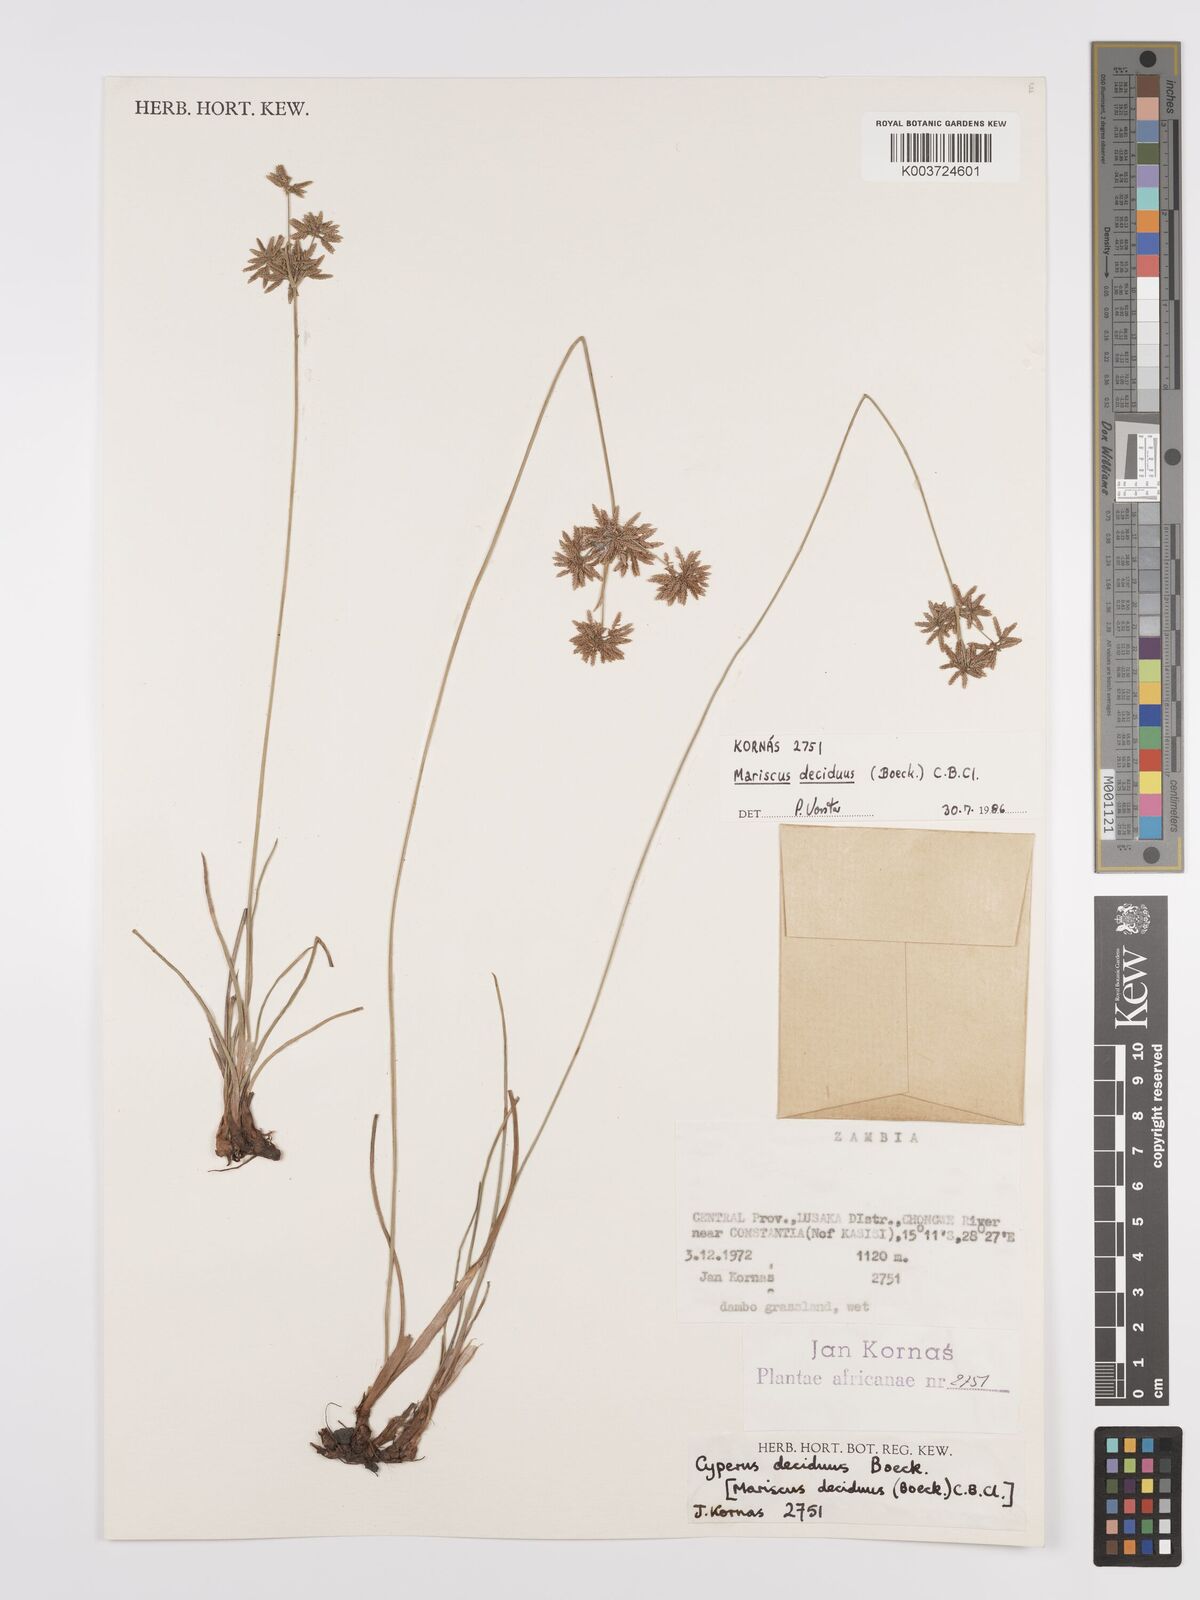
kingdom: Plantae
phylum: Tracheophyta
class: Liliopsida
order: Poales
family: Cyperaceae
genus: Cyperus
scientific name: Cyperus deciduus
